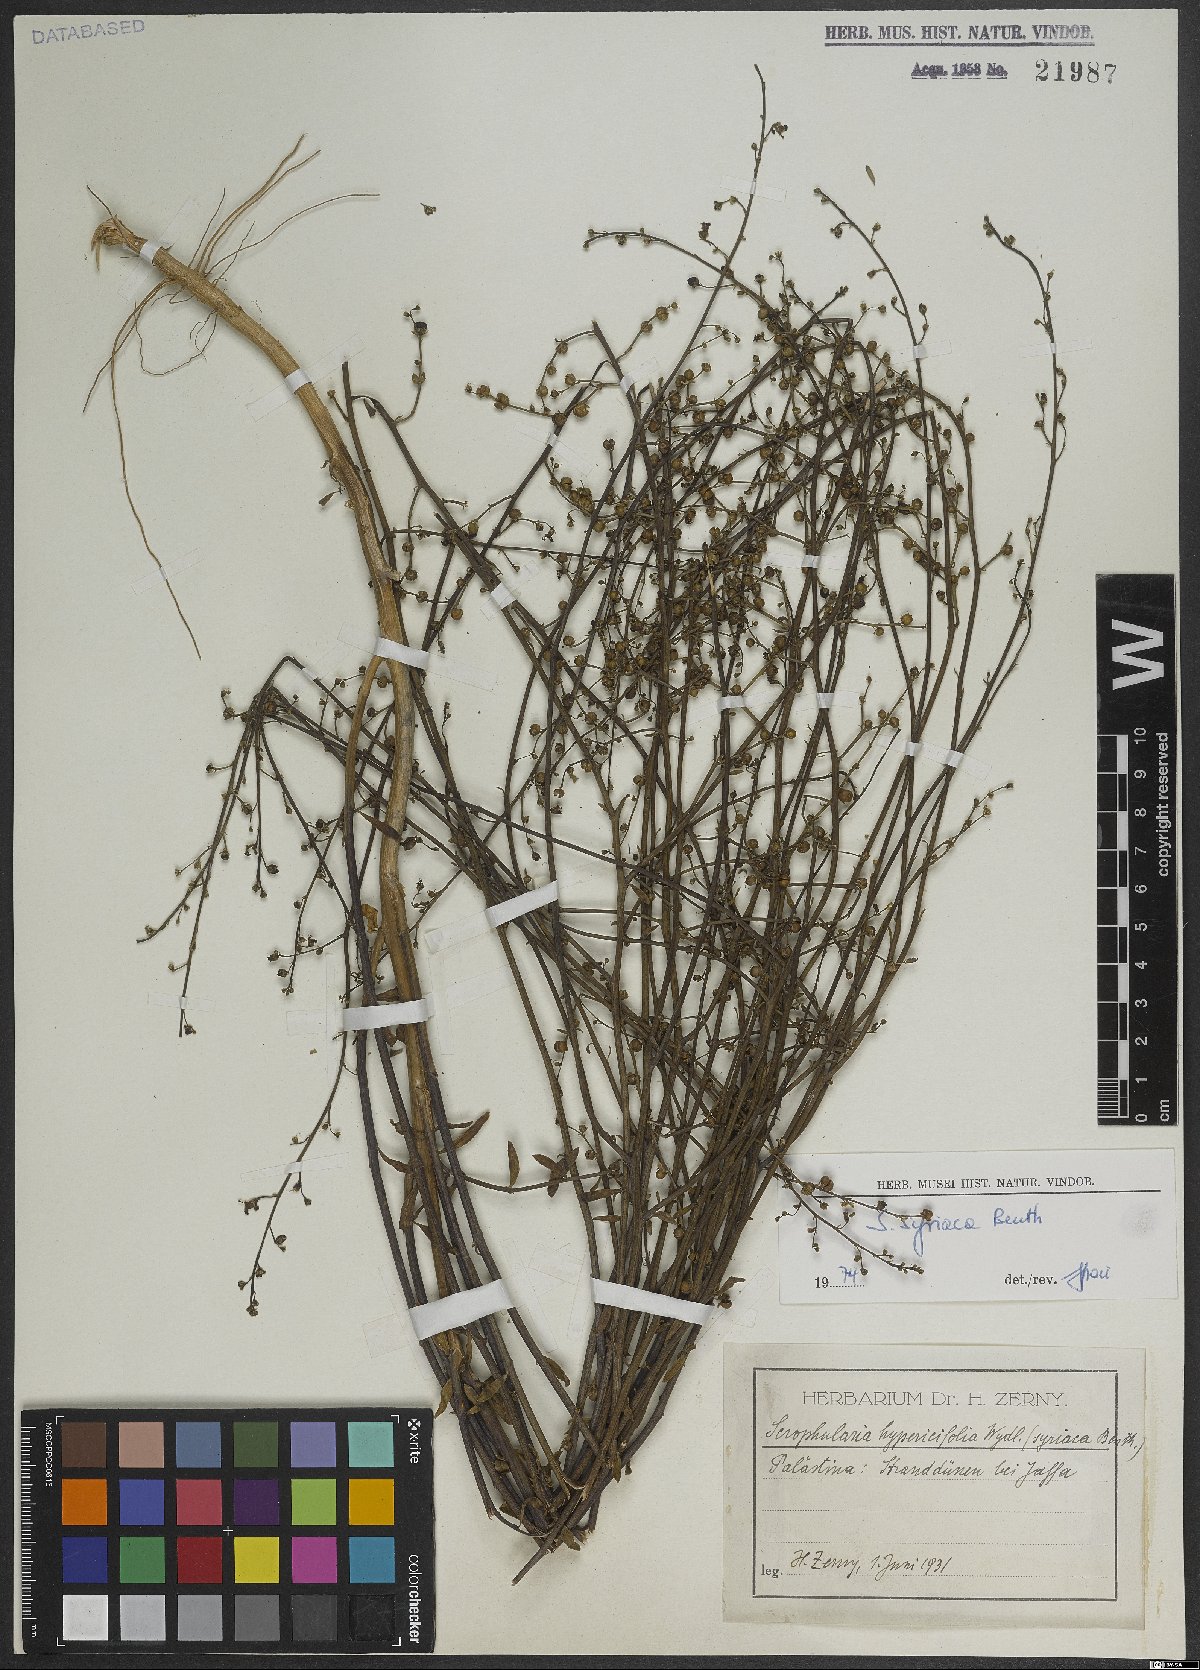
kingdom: Plantae
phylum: Tracheophyta
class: Magnoliopsida
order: Lamiales
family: Scrophulariaceae
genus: Scrophularia
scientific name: Scrophularia hypericifolia
